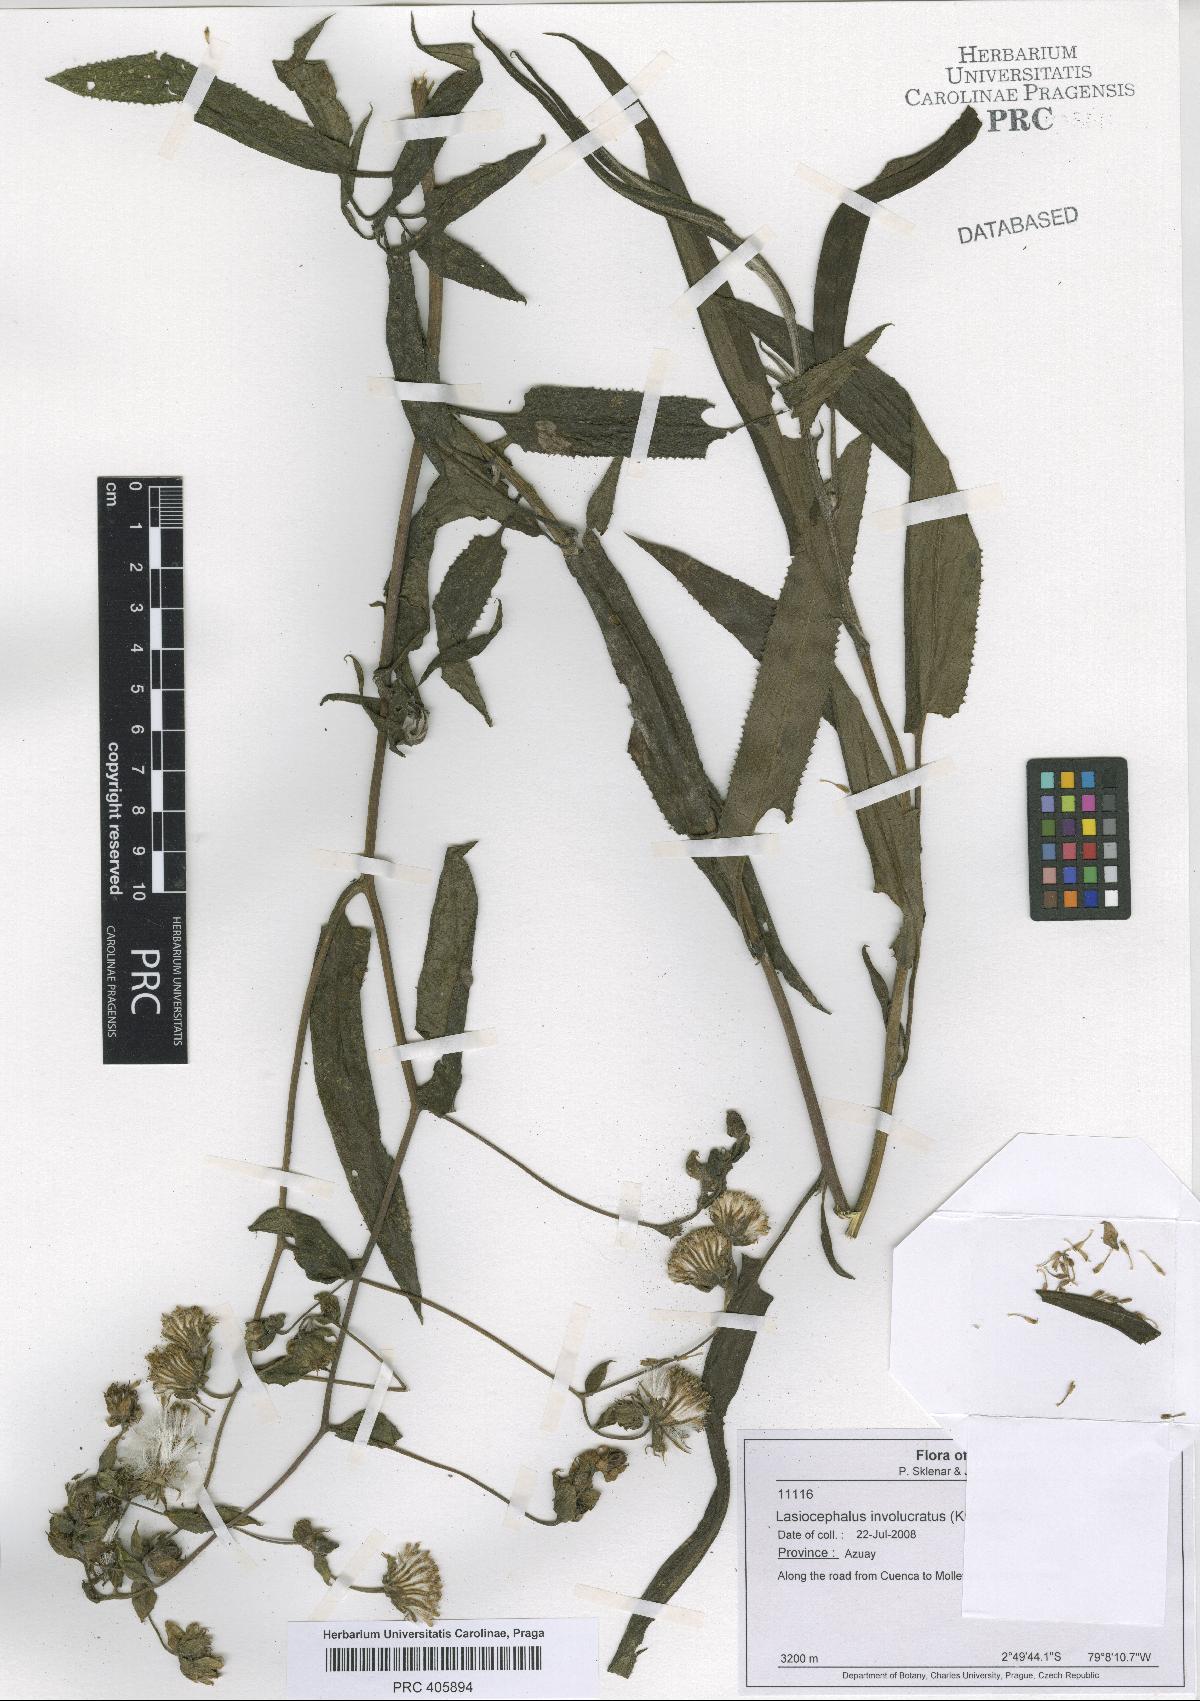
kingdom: Plantae
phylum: Tracheophyta
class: Magnoliopsida
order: Asterales
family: Asteraceae
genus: Aetheolaena
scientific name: Aetheolaena involucrata
